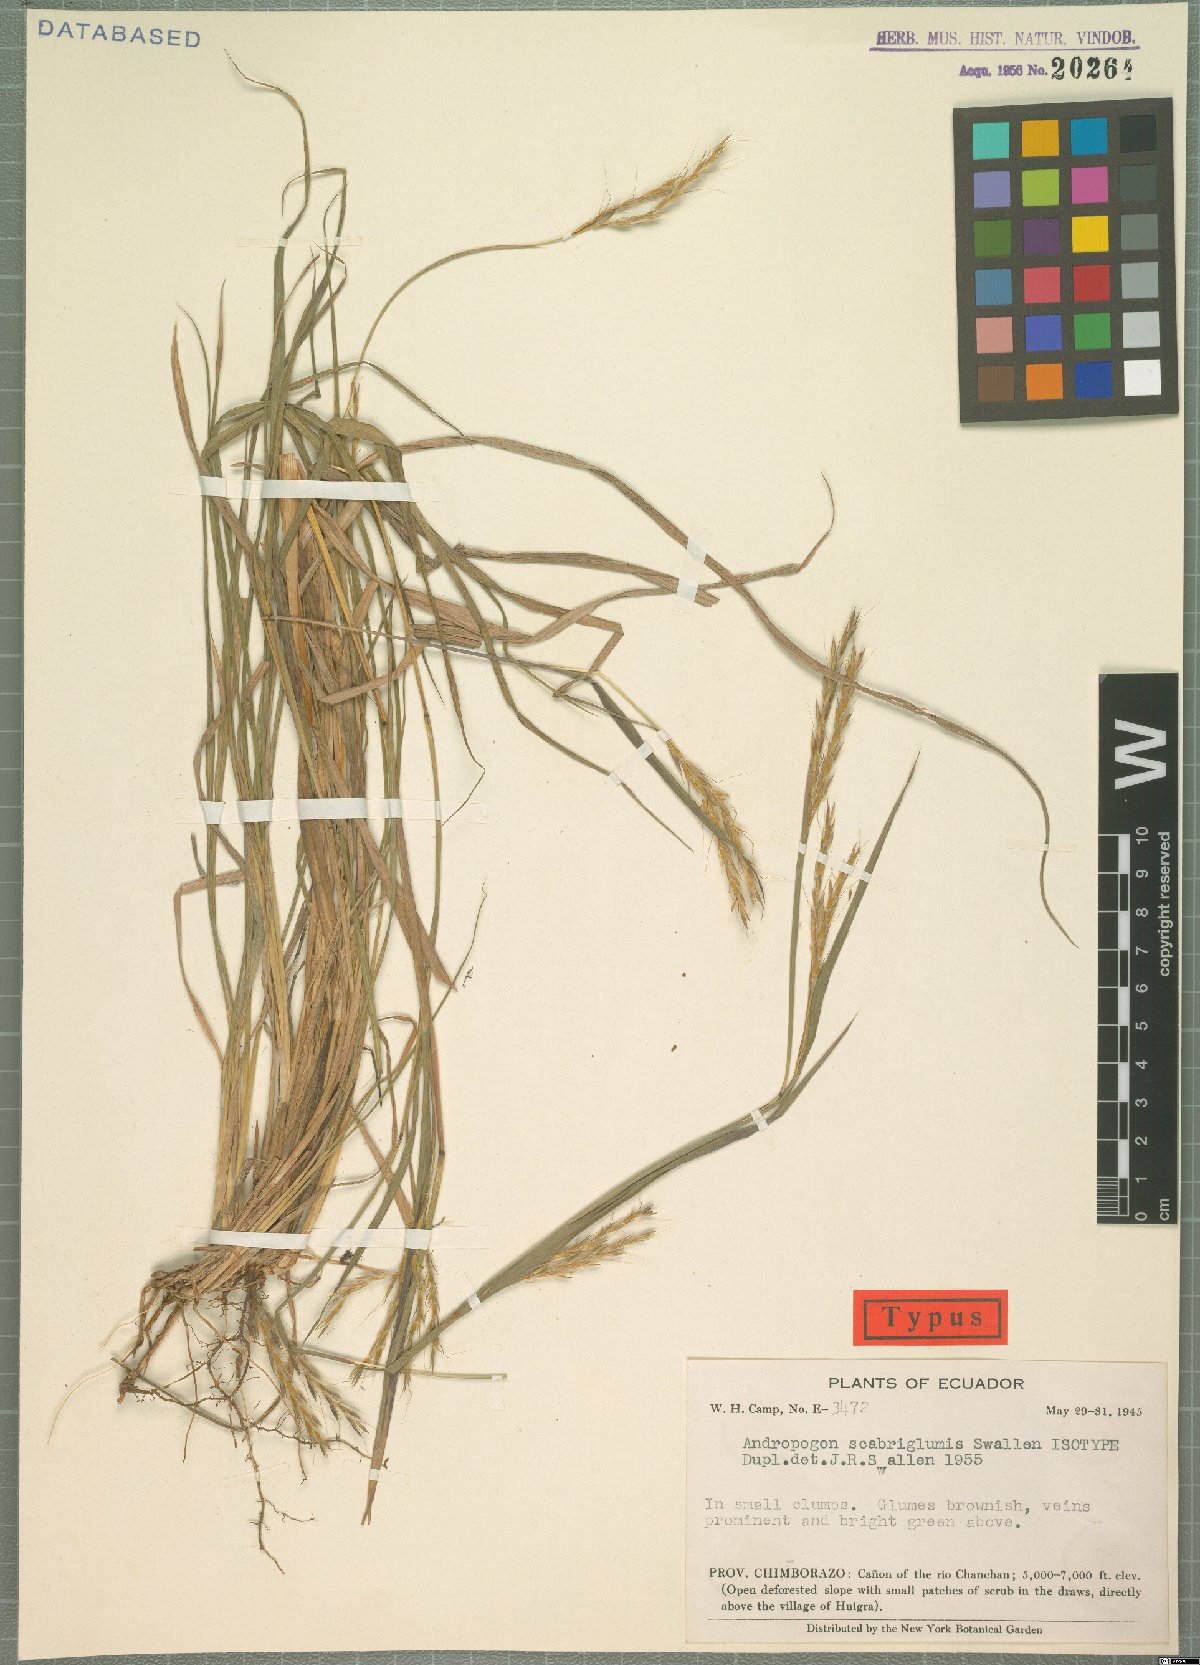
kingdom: Plantae
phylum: Tracheophyta
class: Liliopsida
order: Poales
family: Poaceae
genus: Andropogon
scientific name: Andropogon scabriglumis
